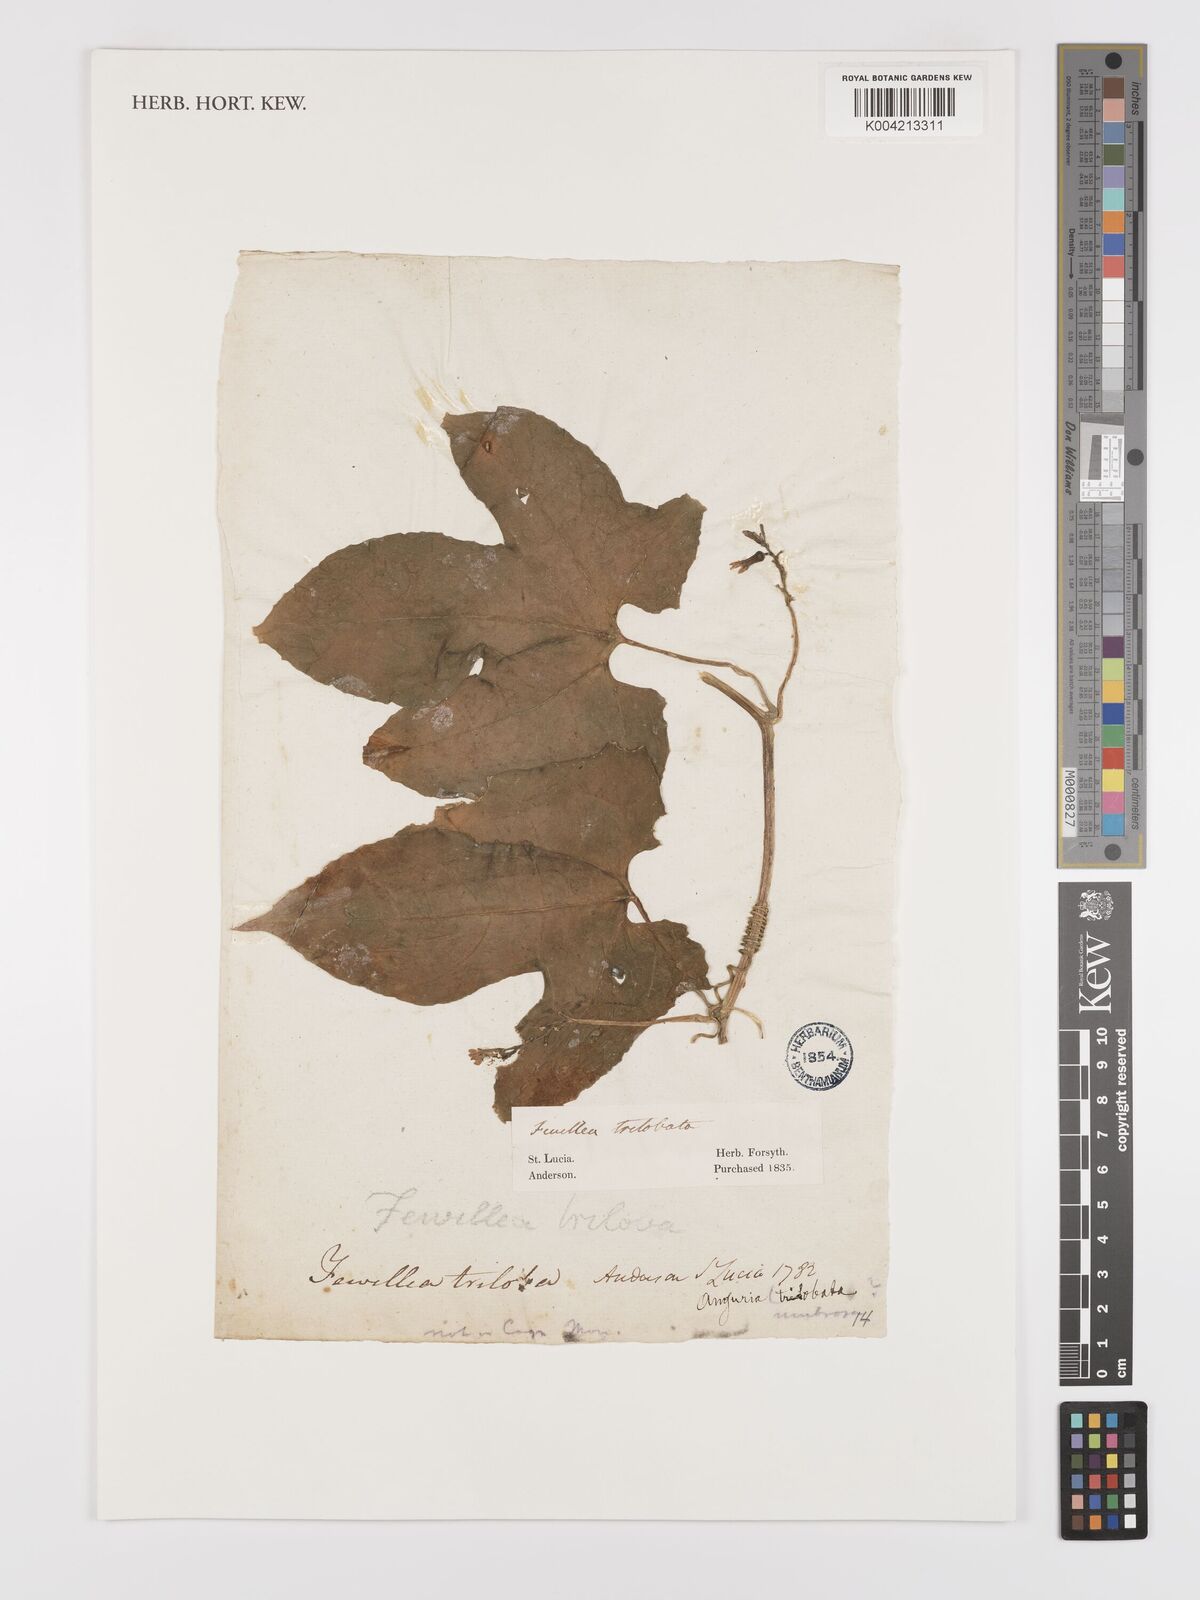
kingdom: Plantae
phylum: Tracheophyta
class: Magnoliopsida
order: Cucurbitales
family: Cucurbitaceae
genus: Fevillea
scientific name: Fevillea cordifolia
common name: Antidote-vine
